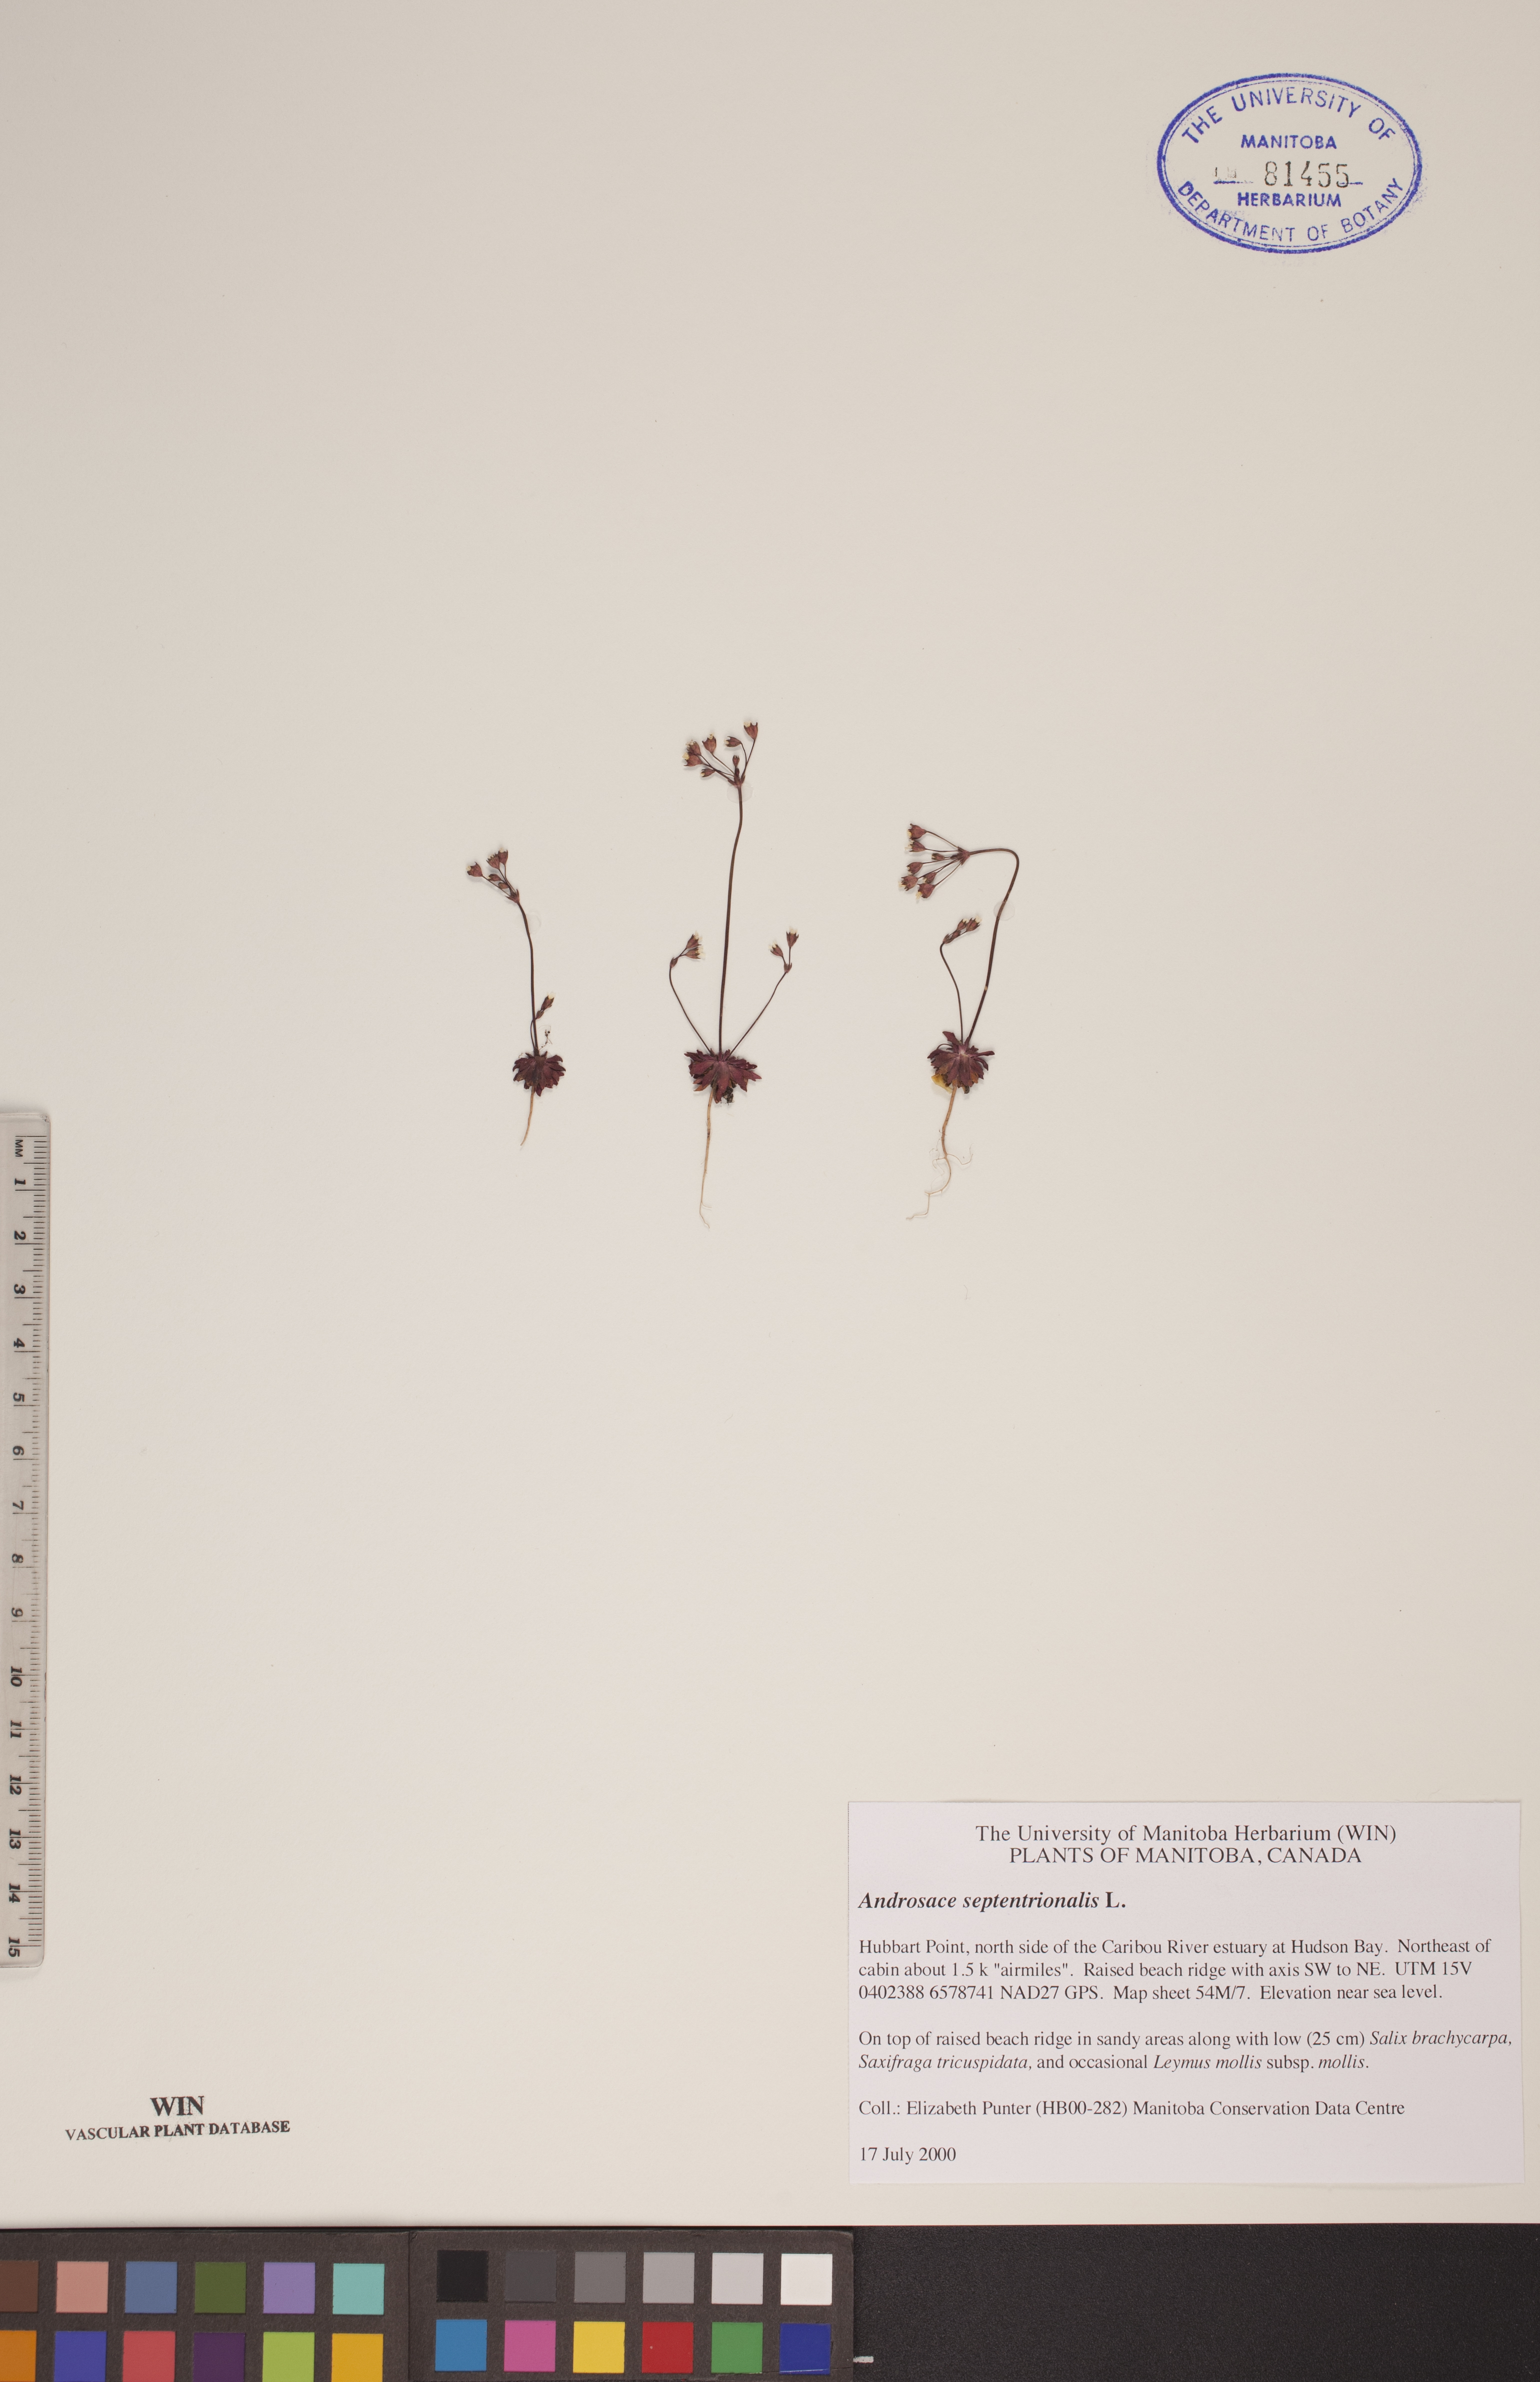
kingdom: Plantae
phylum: Tracheophyta
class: Magnoliopsida
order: Ericales
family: Primulaceae
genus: Androsace
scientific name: Androsace septentrionalis
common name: Hairy northern fairy-candelabra
